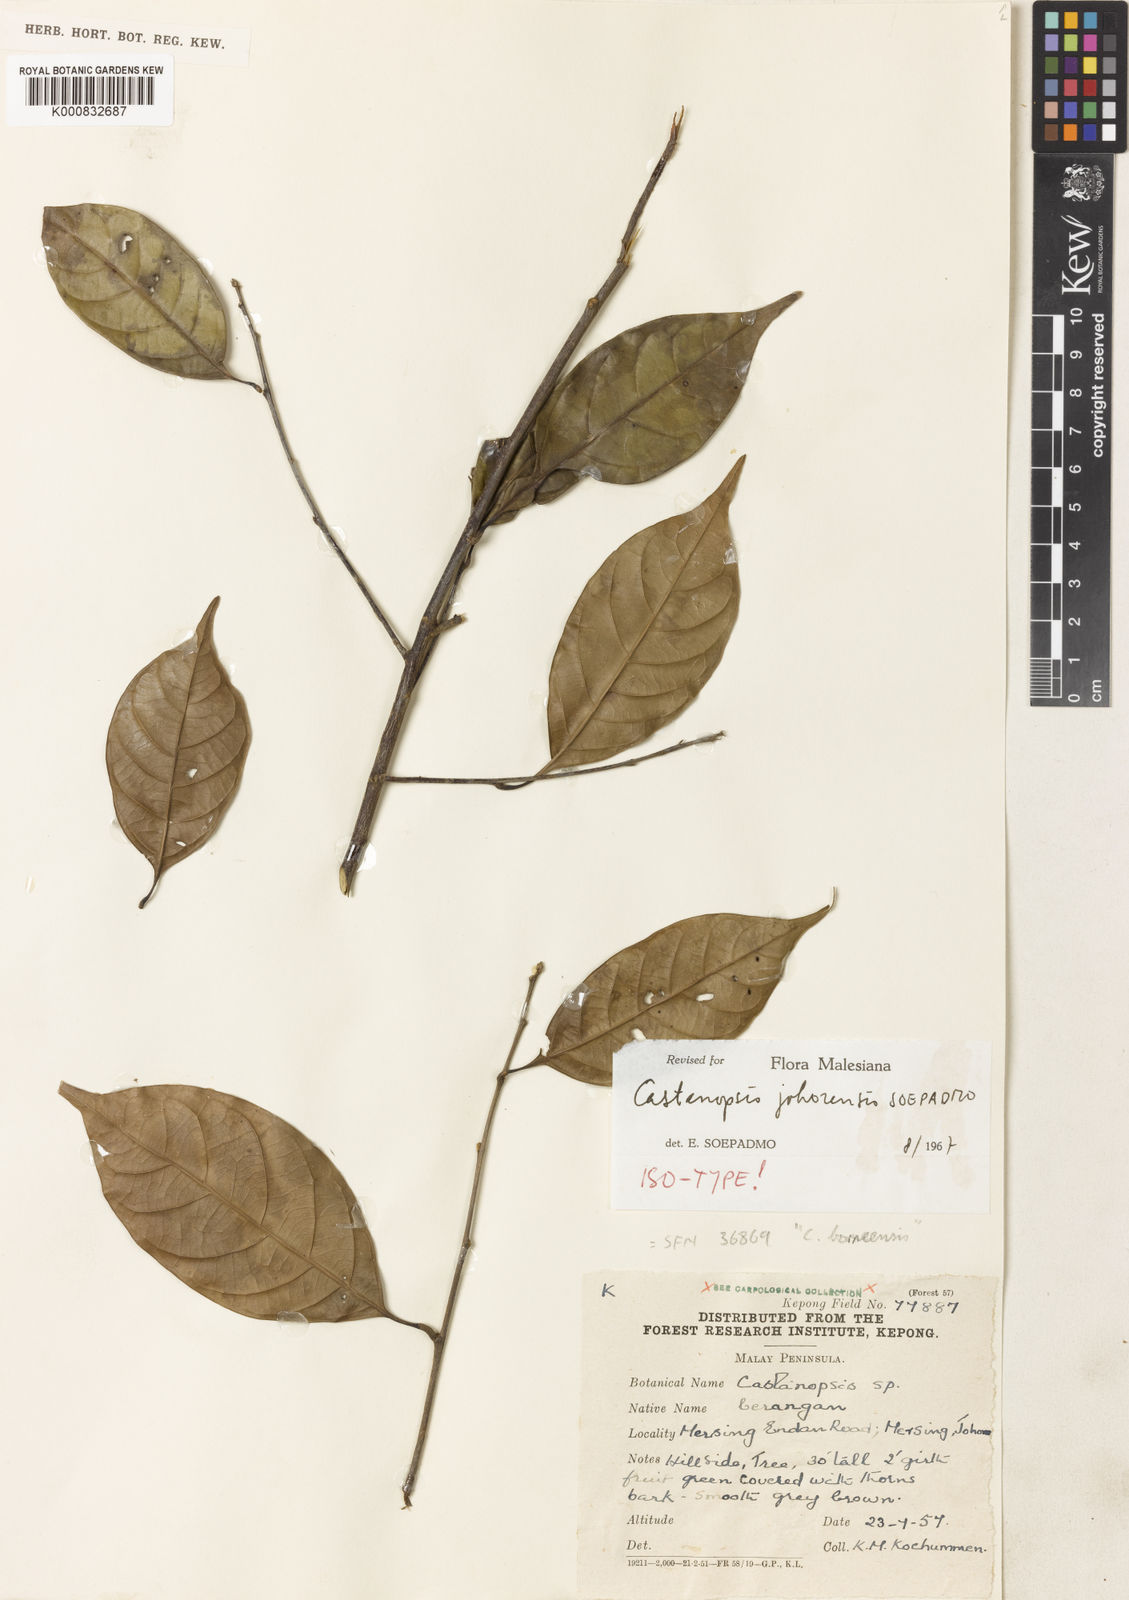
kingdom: Plantae
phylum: Tracheophyta
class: Magnoliopsida
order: Fagales
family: Fagaceae
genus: Castanopsis
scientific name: Castanopsis johorensis
